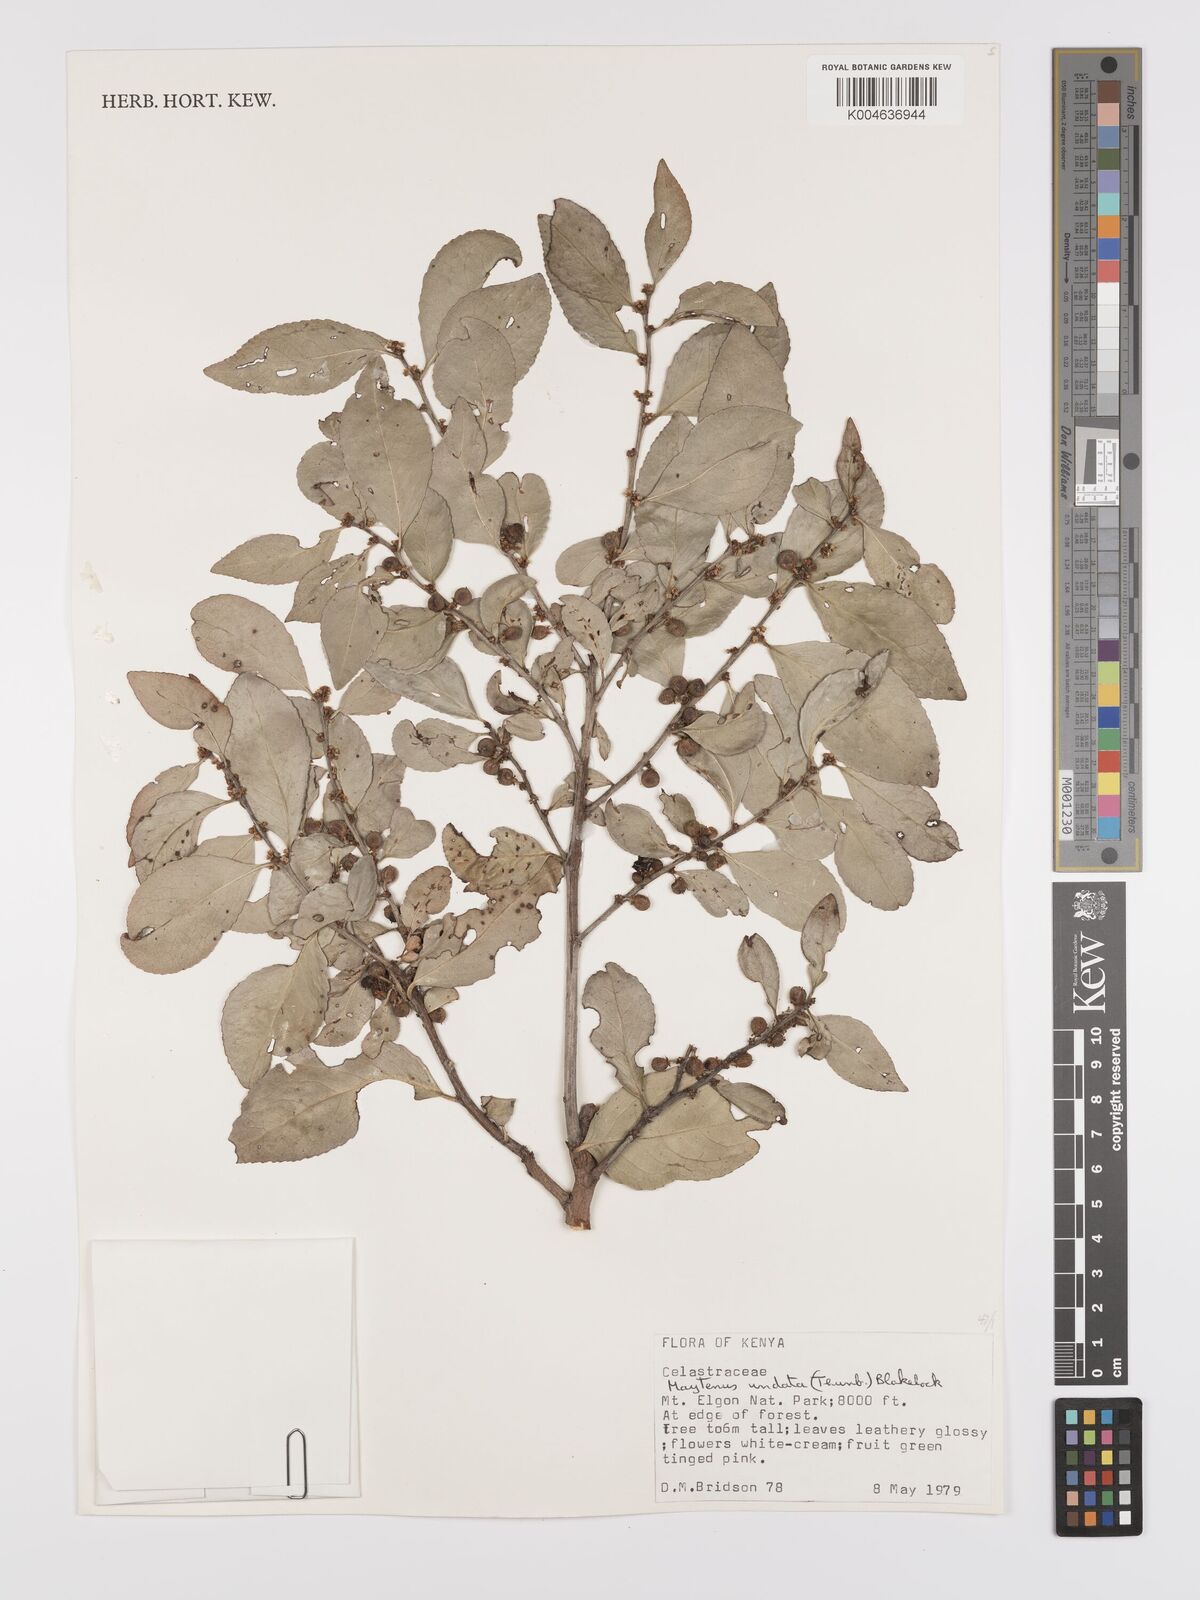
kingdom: Plantae
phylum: Tracheophyta
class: Magnoliopsida
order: Celastrales
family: Celastraceae
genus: Gymnosporia
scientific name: Gymnosporia undata
